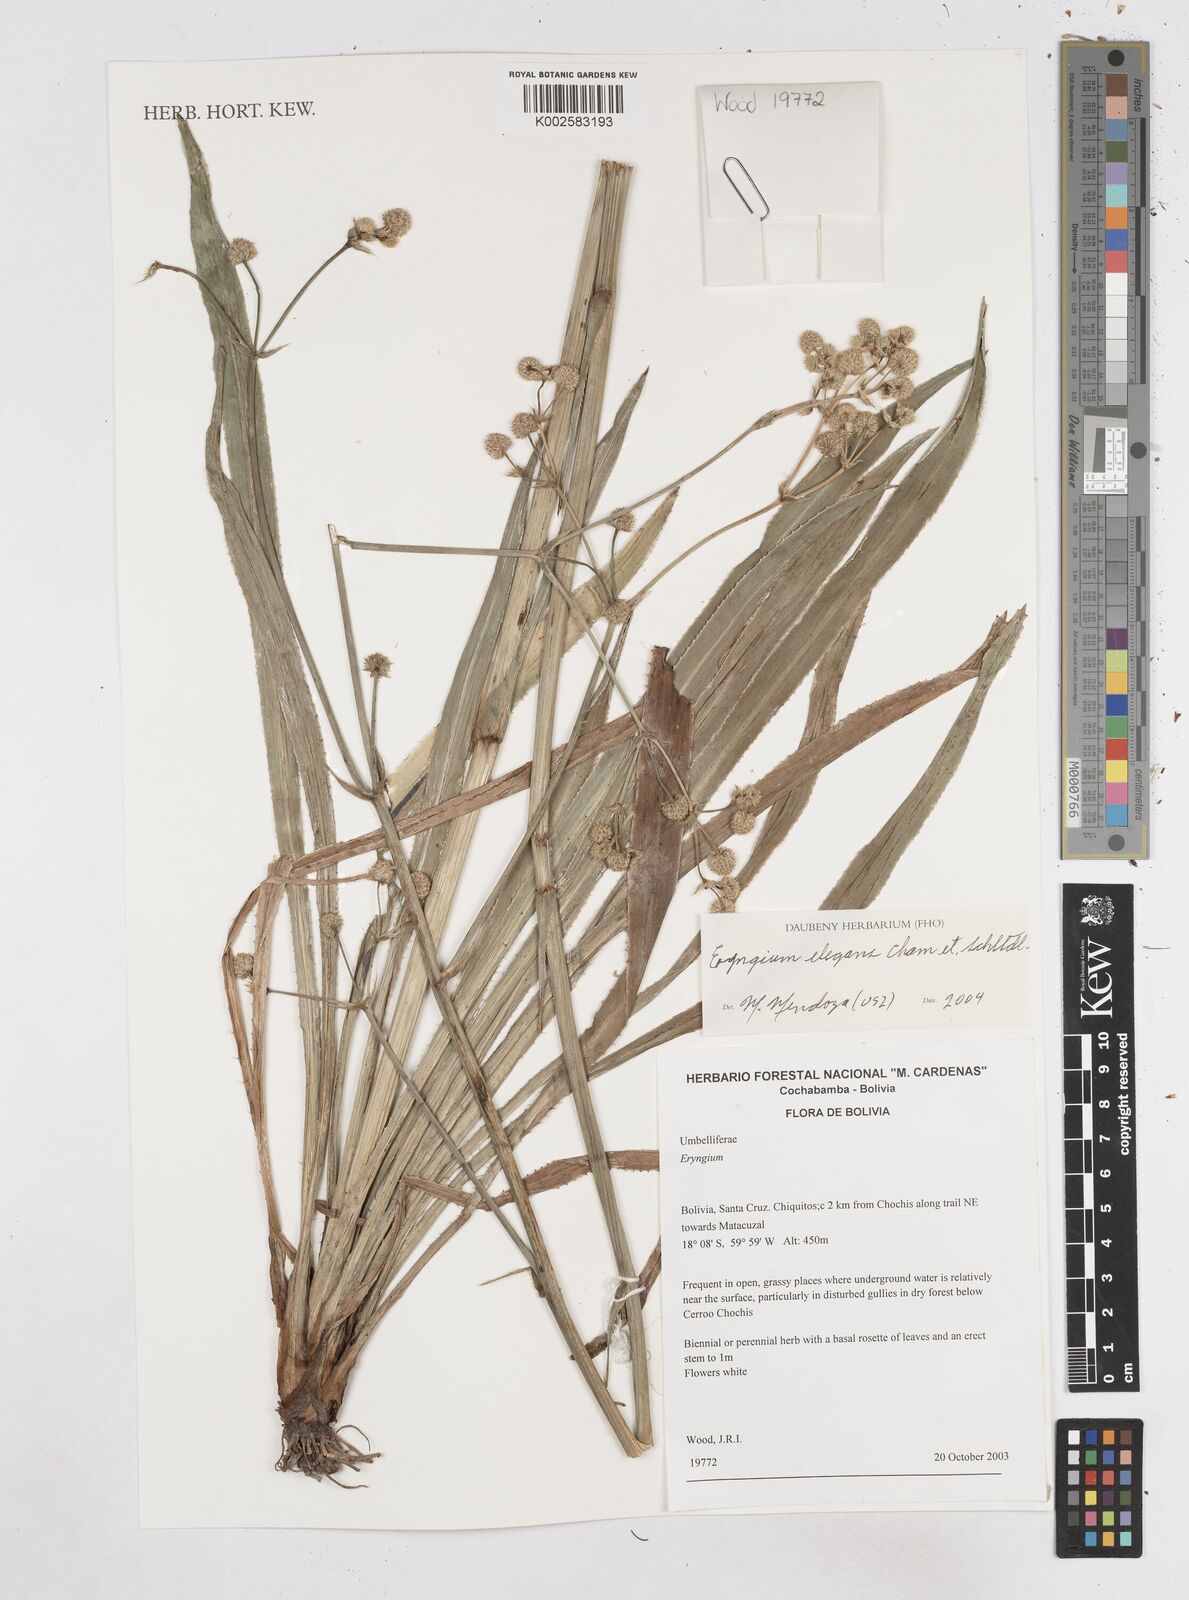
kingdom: Plantae
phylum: Tracheophyta
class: Magnoliopsida
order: Apiales
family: Apiaceae
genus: Eryngium
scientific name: Eryngium elegans
